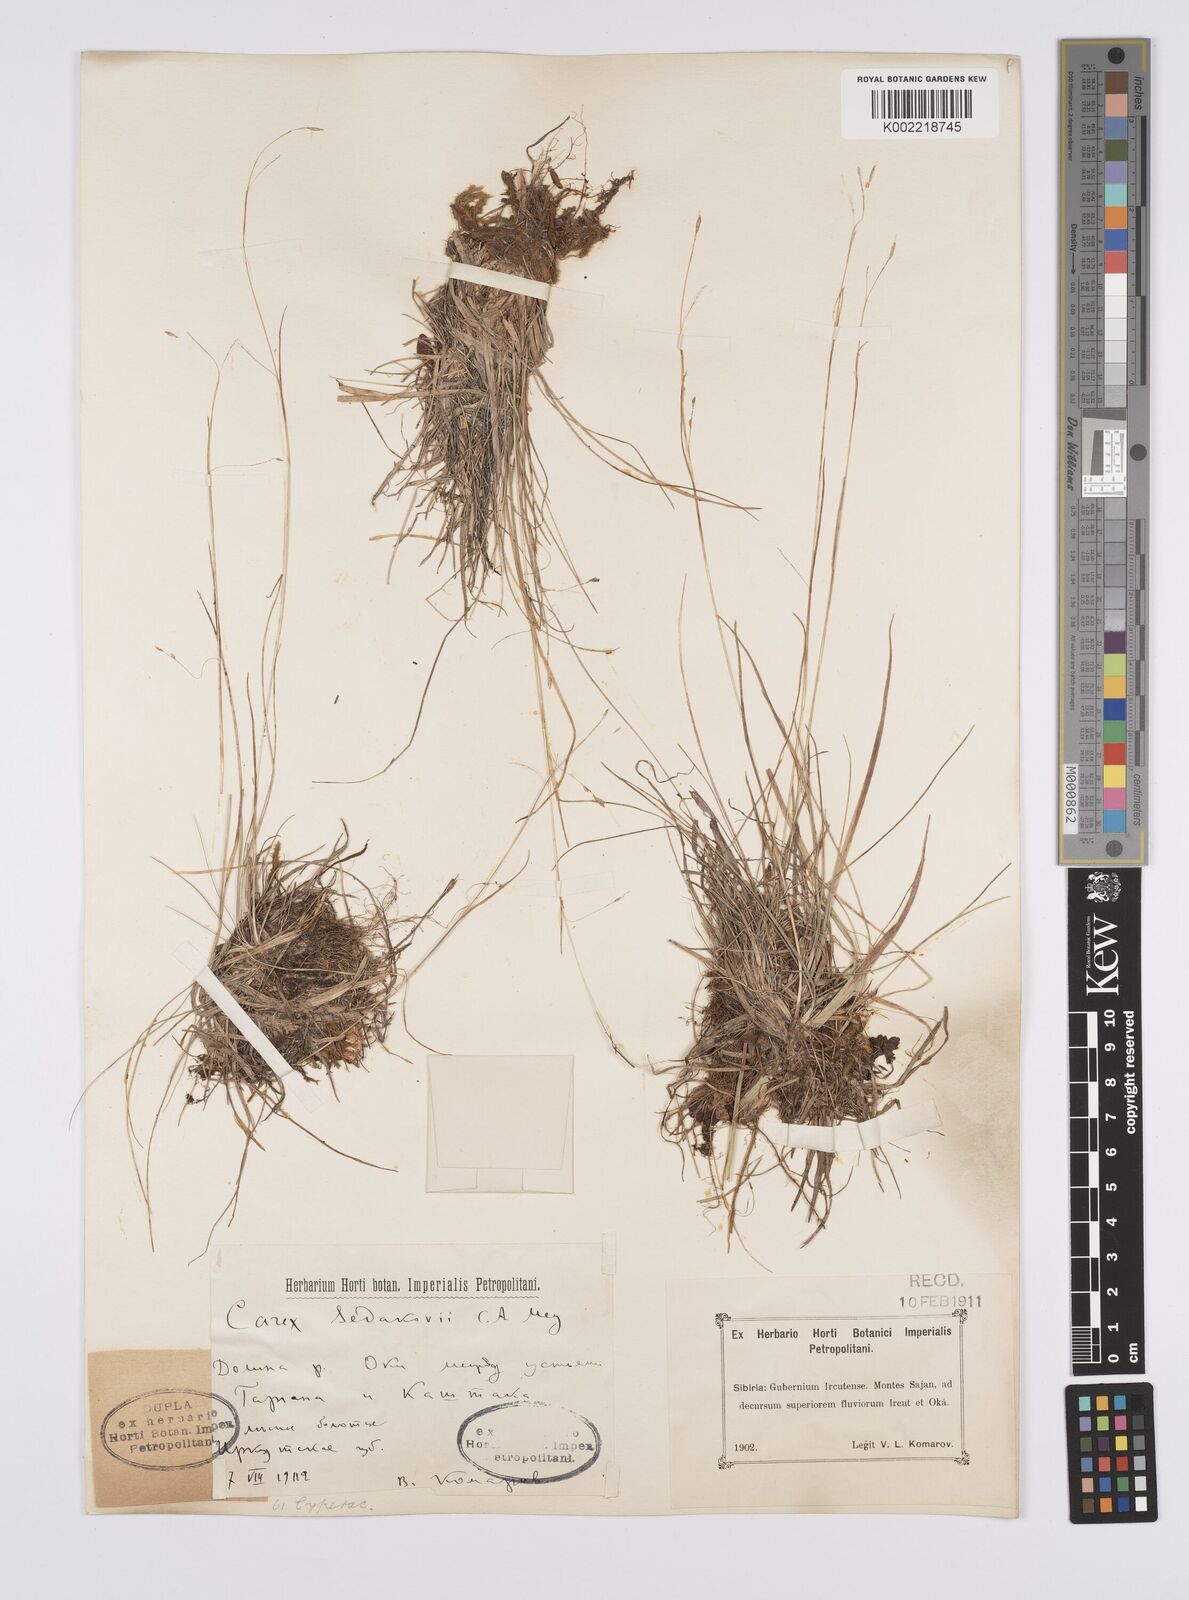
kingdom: Plantae
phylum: Tracheophyta
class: Liliopsida
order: Poales
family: Cyperaceae
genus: Carex
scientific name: Carex sedakowii
